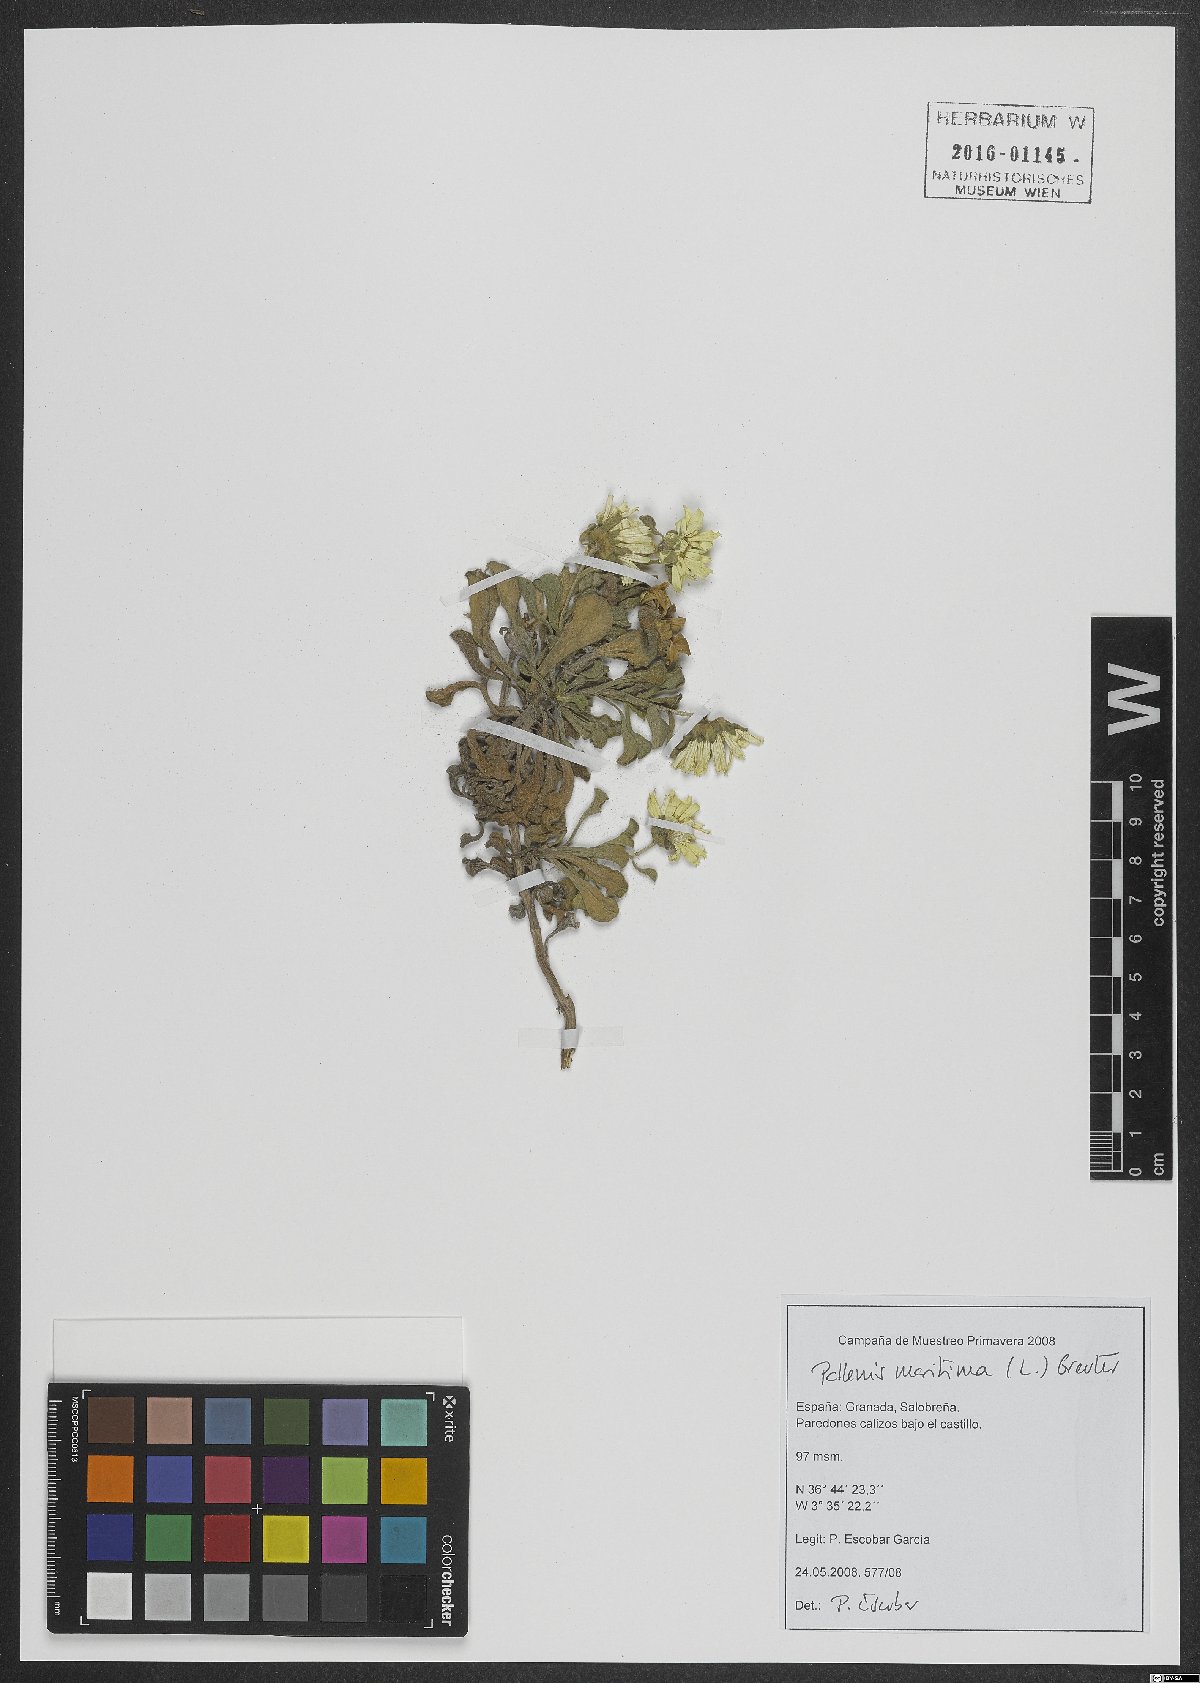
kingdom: Plantae
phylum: Tracheophyta
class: Magnoliopsida
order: Asterales
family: Asteraceae
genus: Pallenis
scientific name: Pallenis maritima
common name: Golden coin daisy
